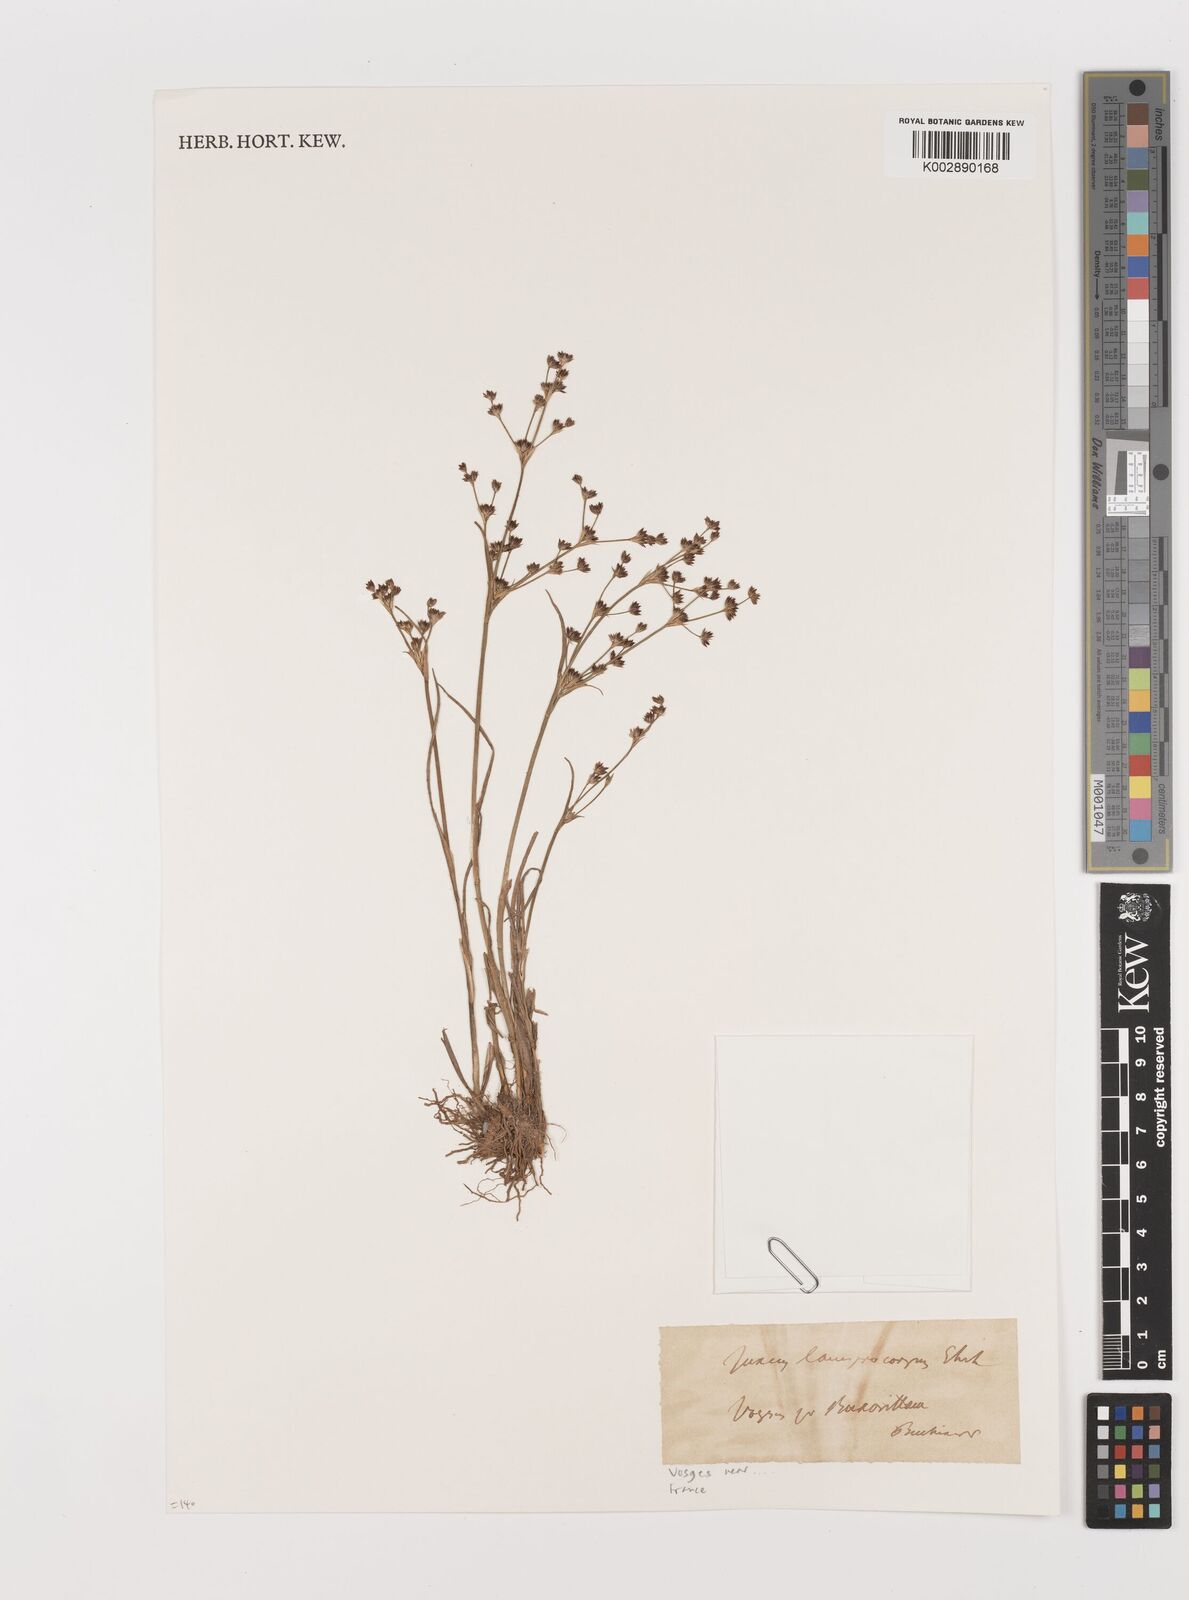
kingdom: Plantae
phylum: Tracheophyta
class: Liliopsida
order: Poales
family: Juncaceae
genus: Juncus
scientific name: Juncus articulatus
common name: Jointed rush
